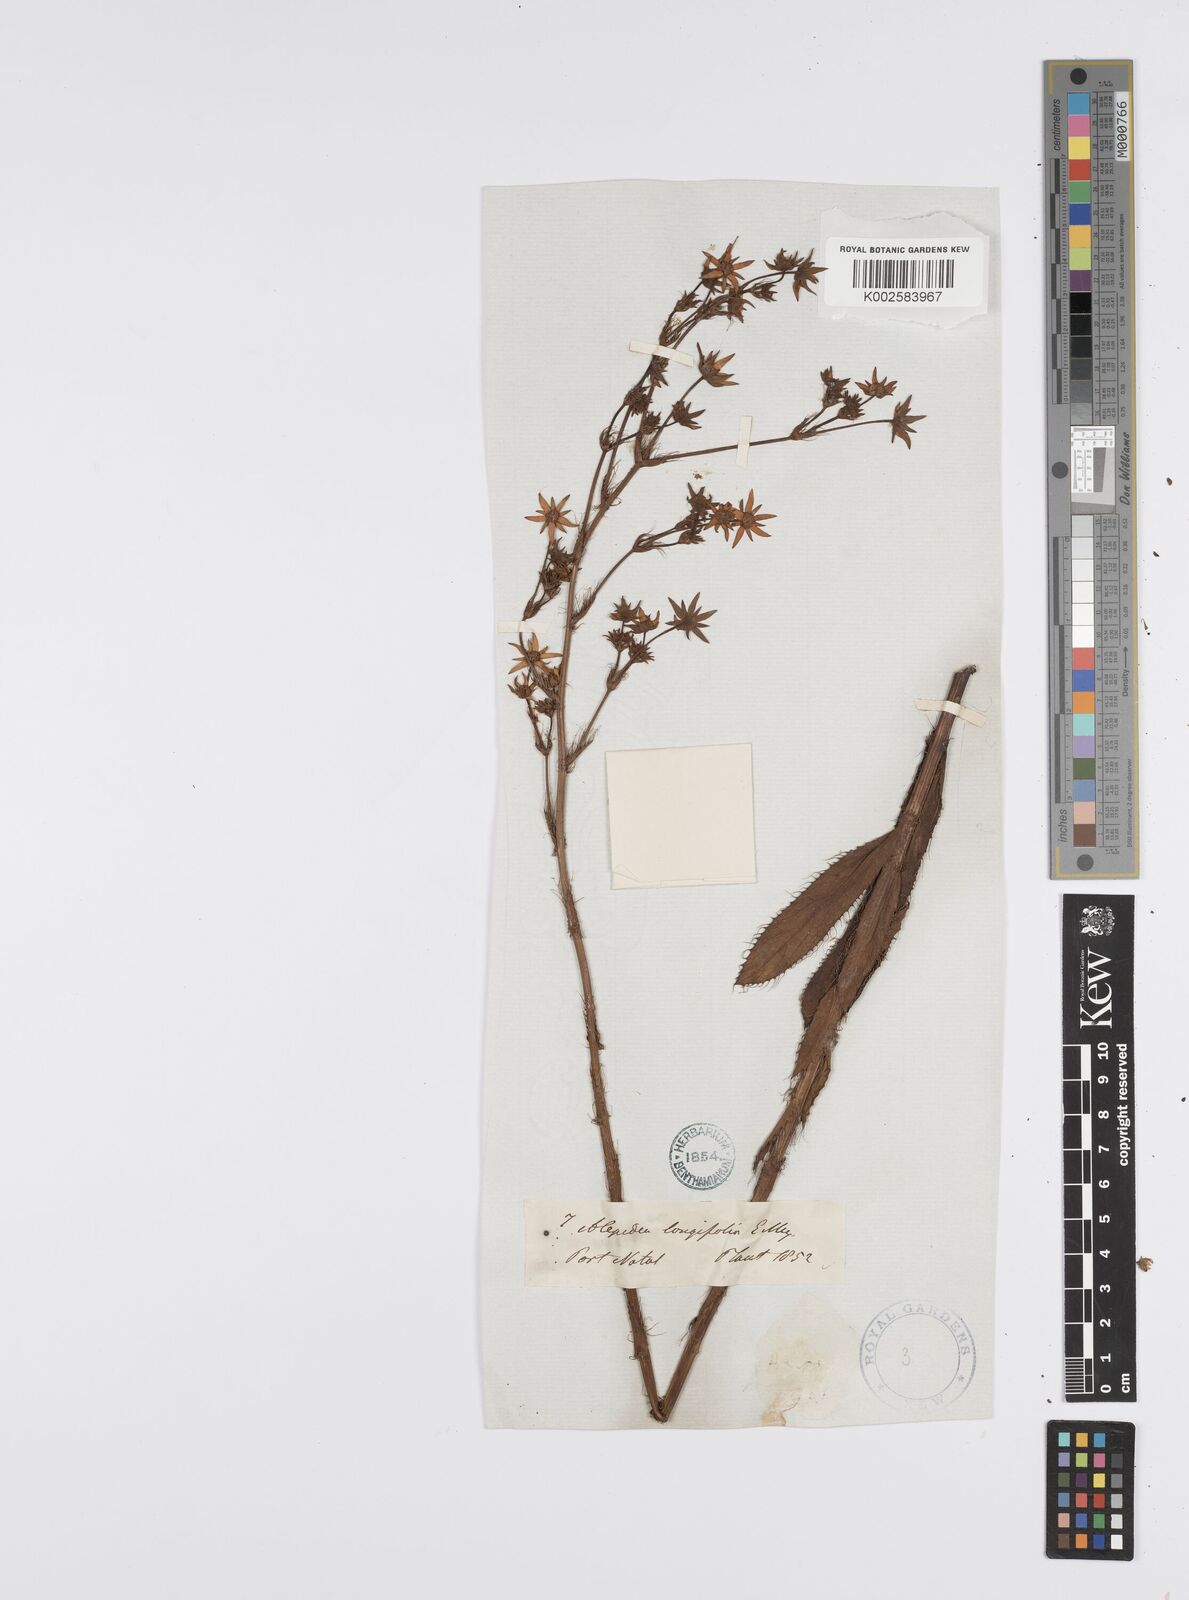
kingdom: Plantae
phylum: Tracheophyta
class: Magnoliopsida
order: Apiales
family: Apiaceae
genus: Alepidea
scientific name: Alepidea
